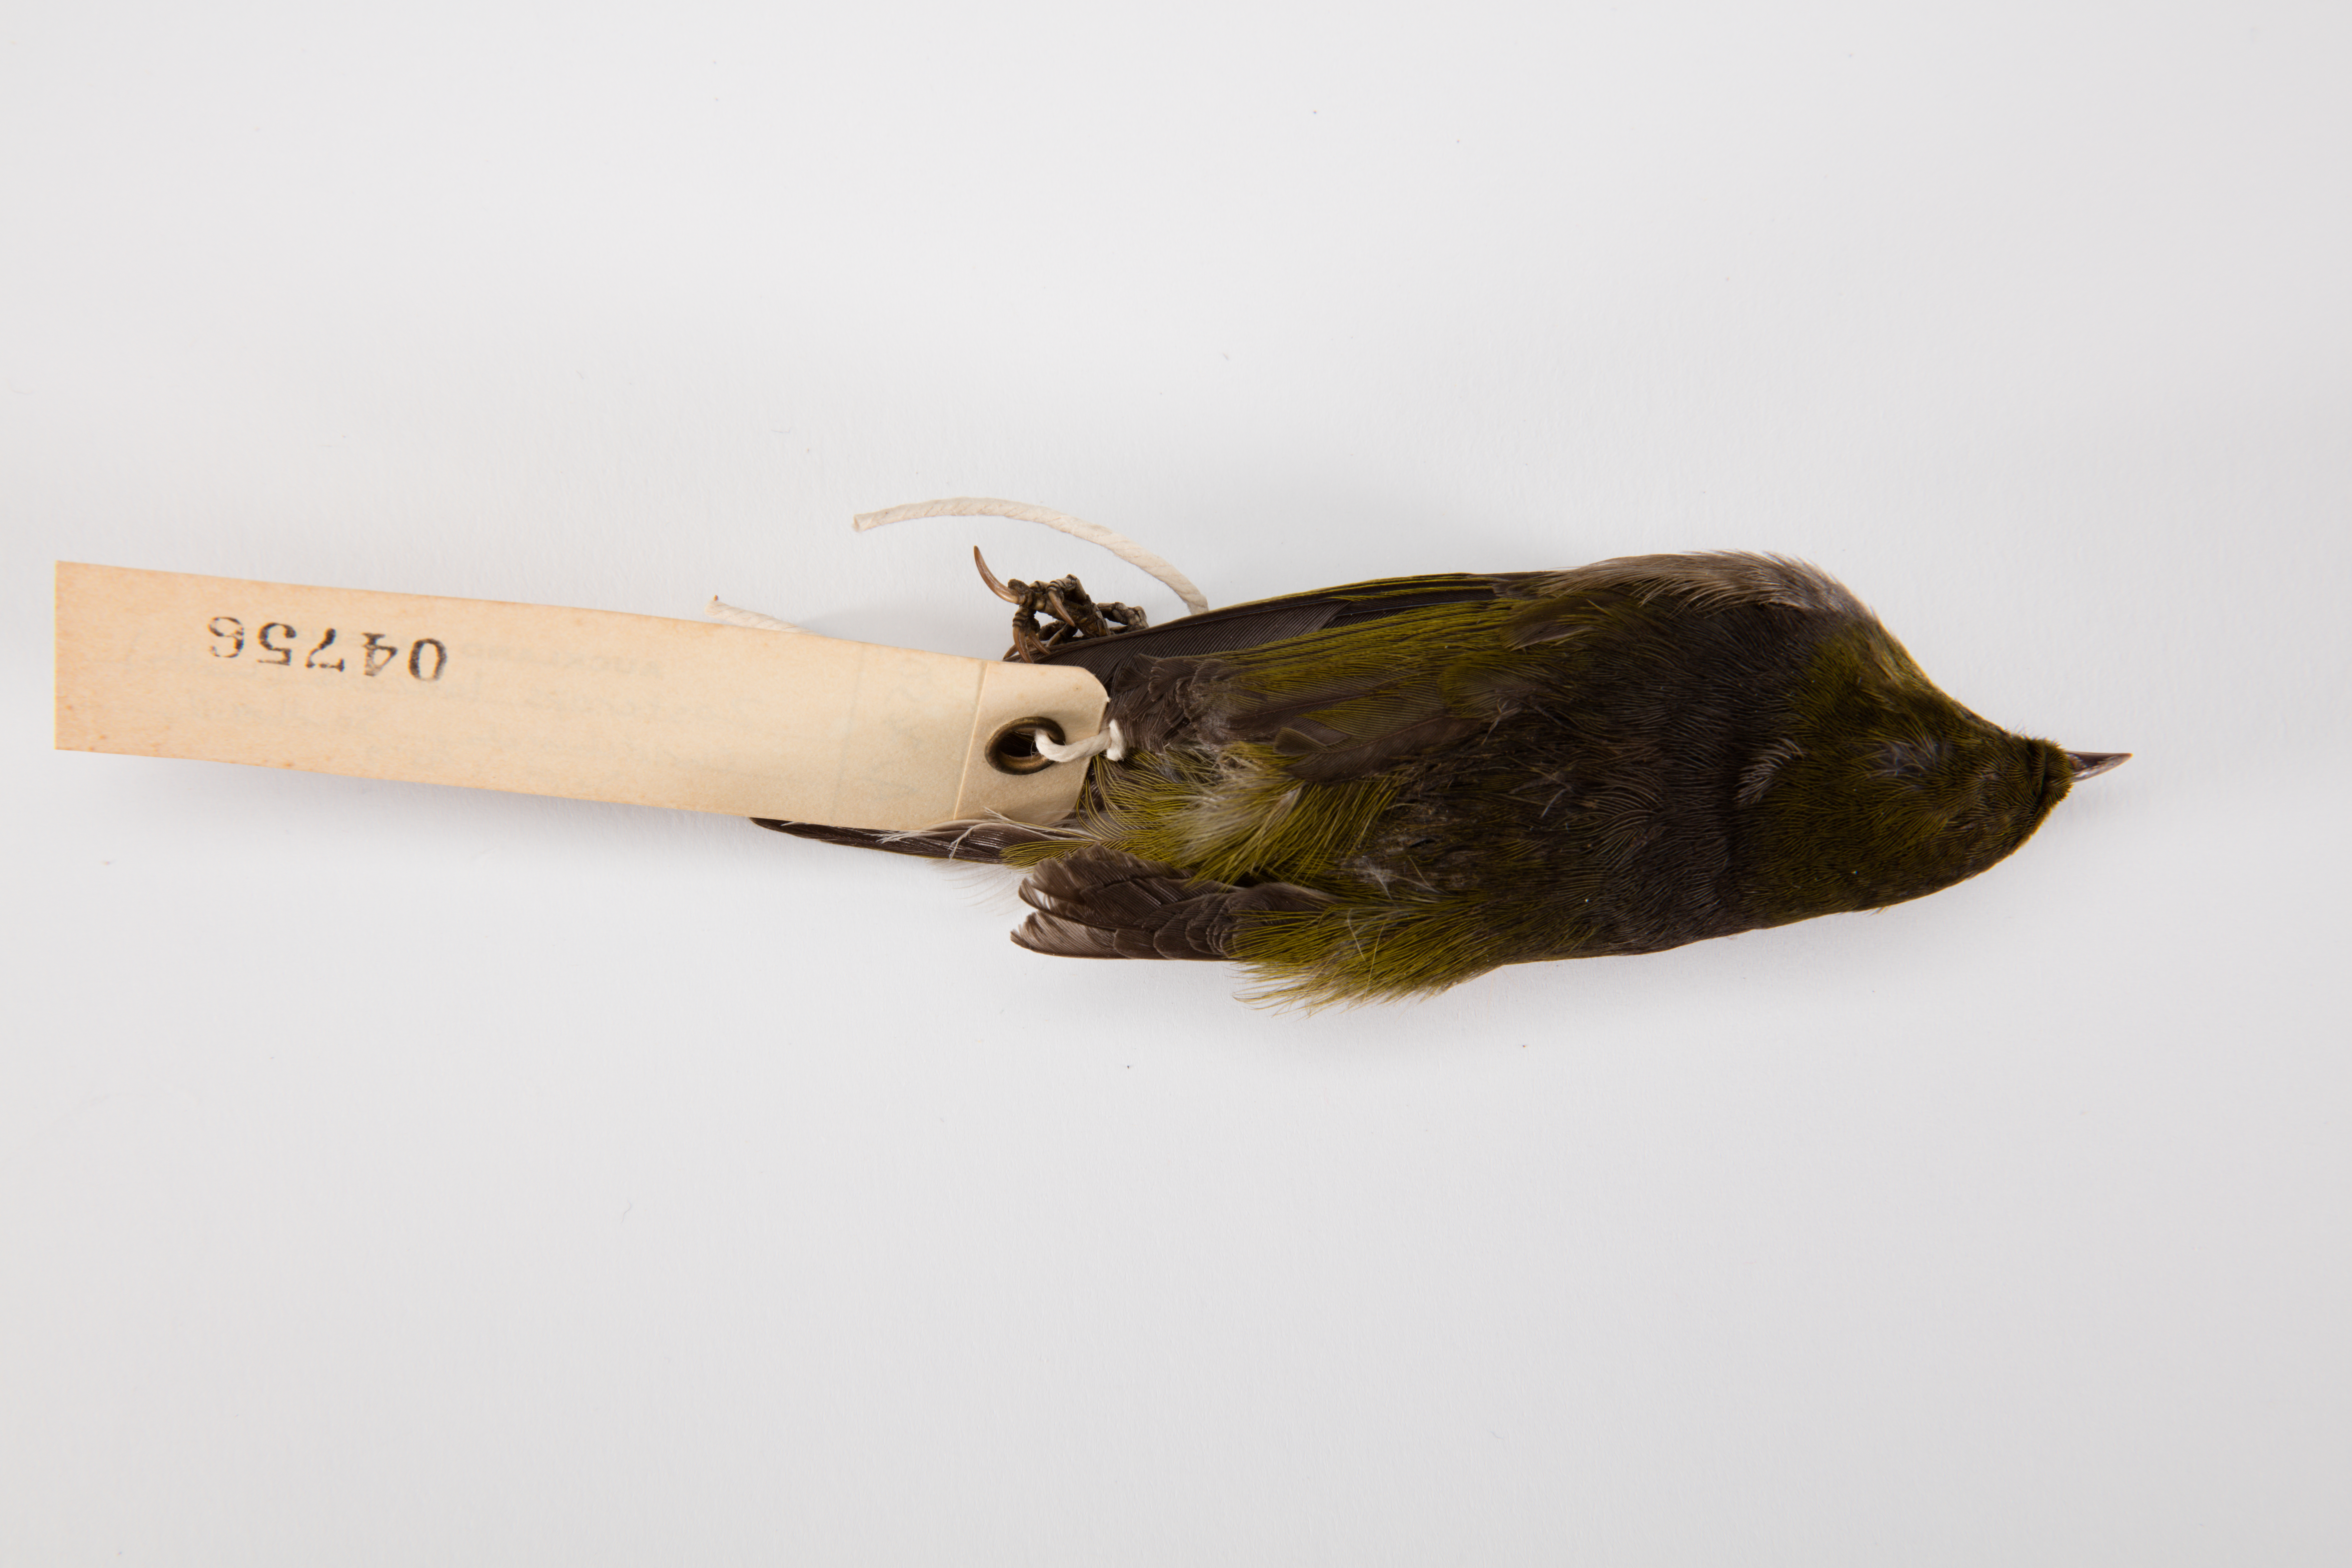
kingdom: Animalia
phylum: Chordata
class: Aves
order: Passeriformes
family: Zosteropidae
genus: Zosterops
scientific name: Zosterops lateralis
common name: Silvereye
